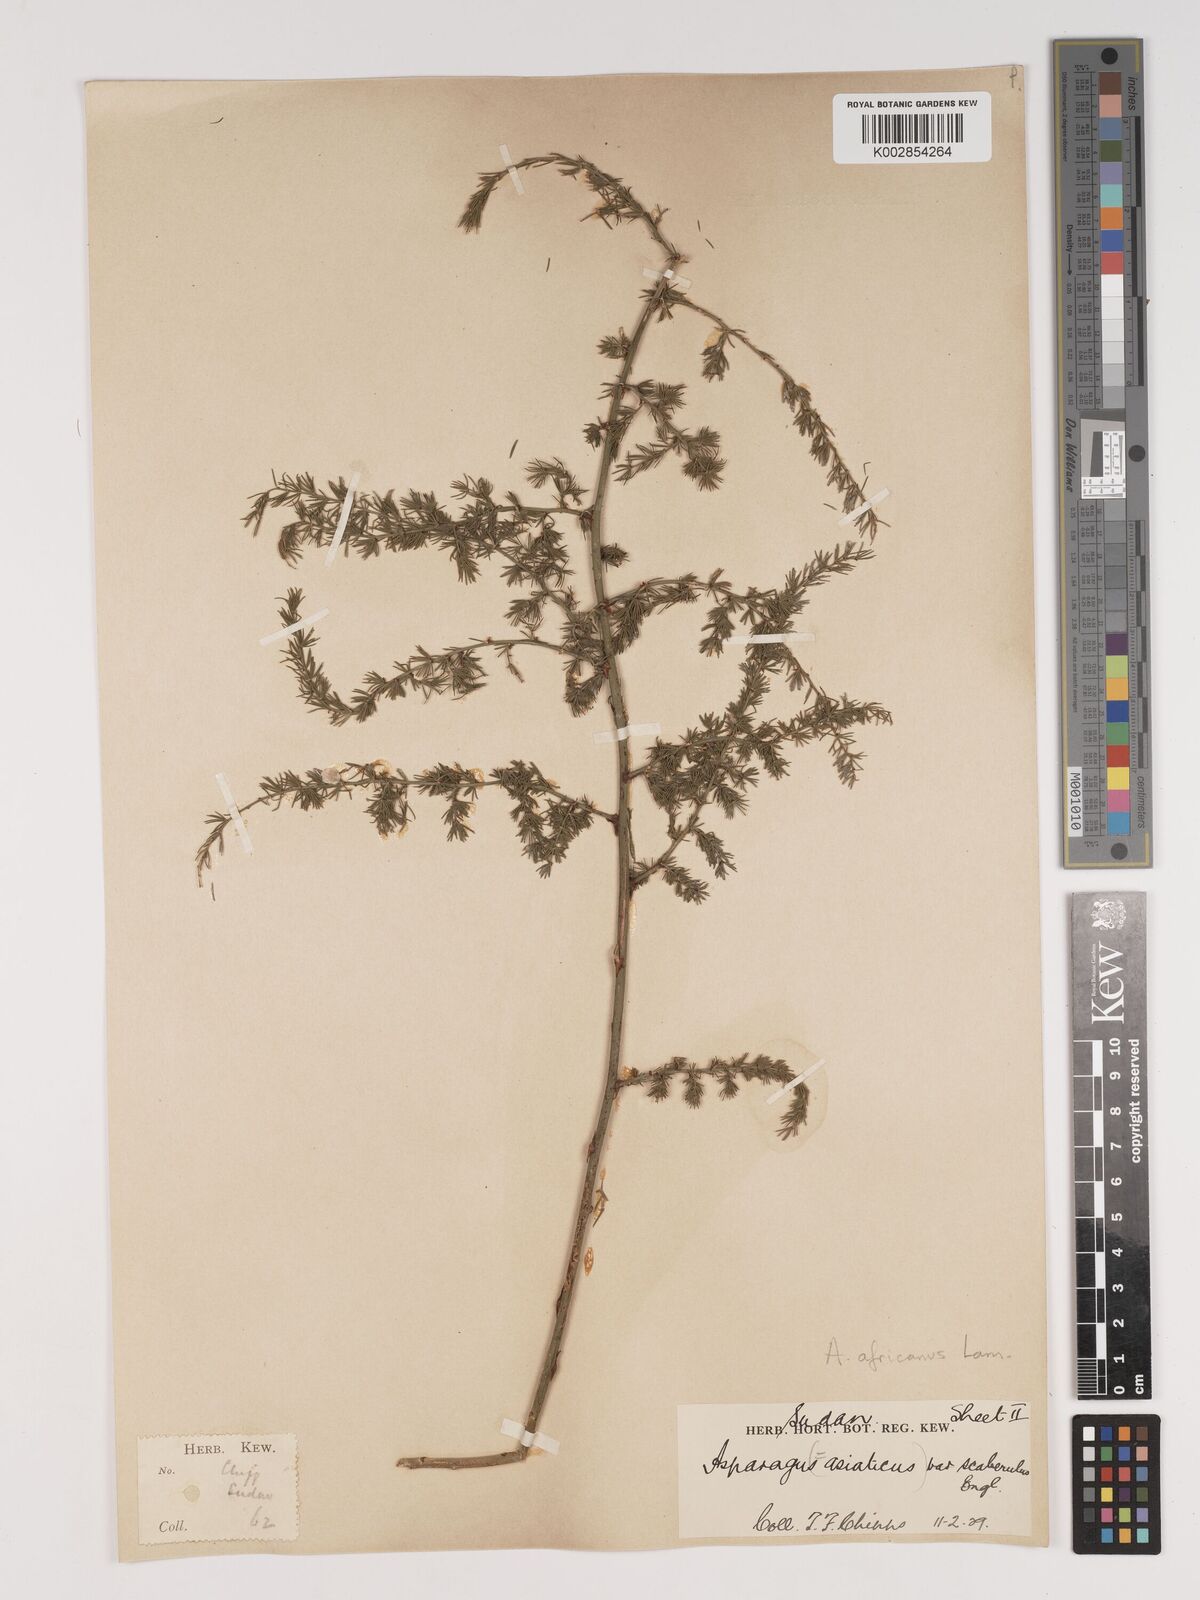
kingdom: Plantae
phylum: Tracheophyta
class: Liliopsida
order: Asparagales
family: Asparagaceae
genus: Asparagus
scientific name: Asparagus africanus
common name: Asparagus-fern
